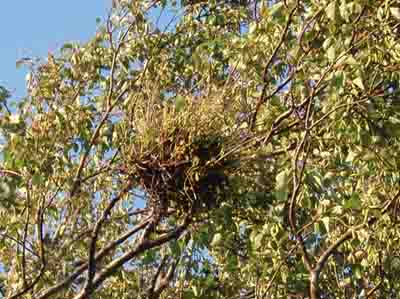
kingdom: Fungi
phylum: Ascomycota
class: Taphrinomycetes
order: Taphrinales
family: Taphrinaceae
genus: Taphrina
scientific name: Taphrina betulina
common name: hekse-sækdug
